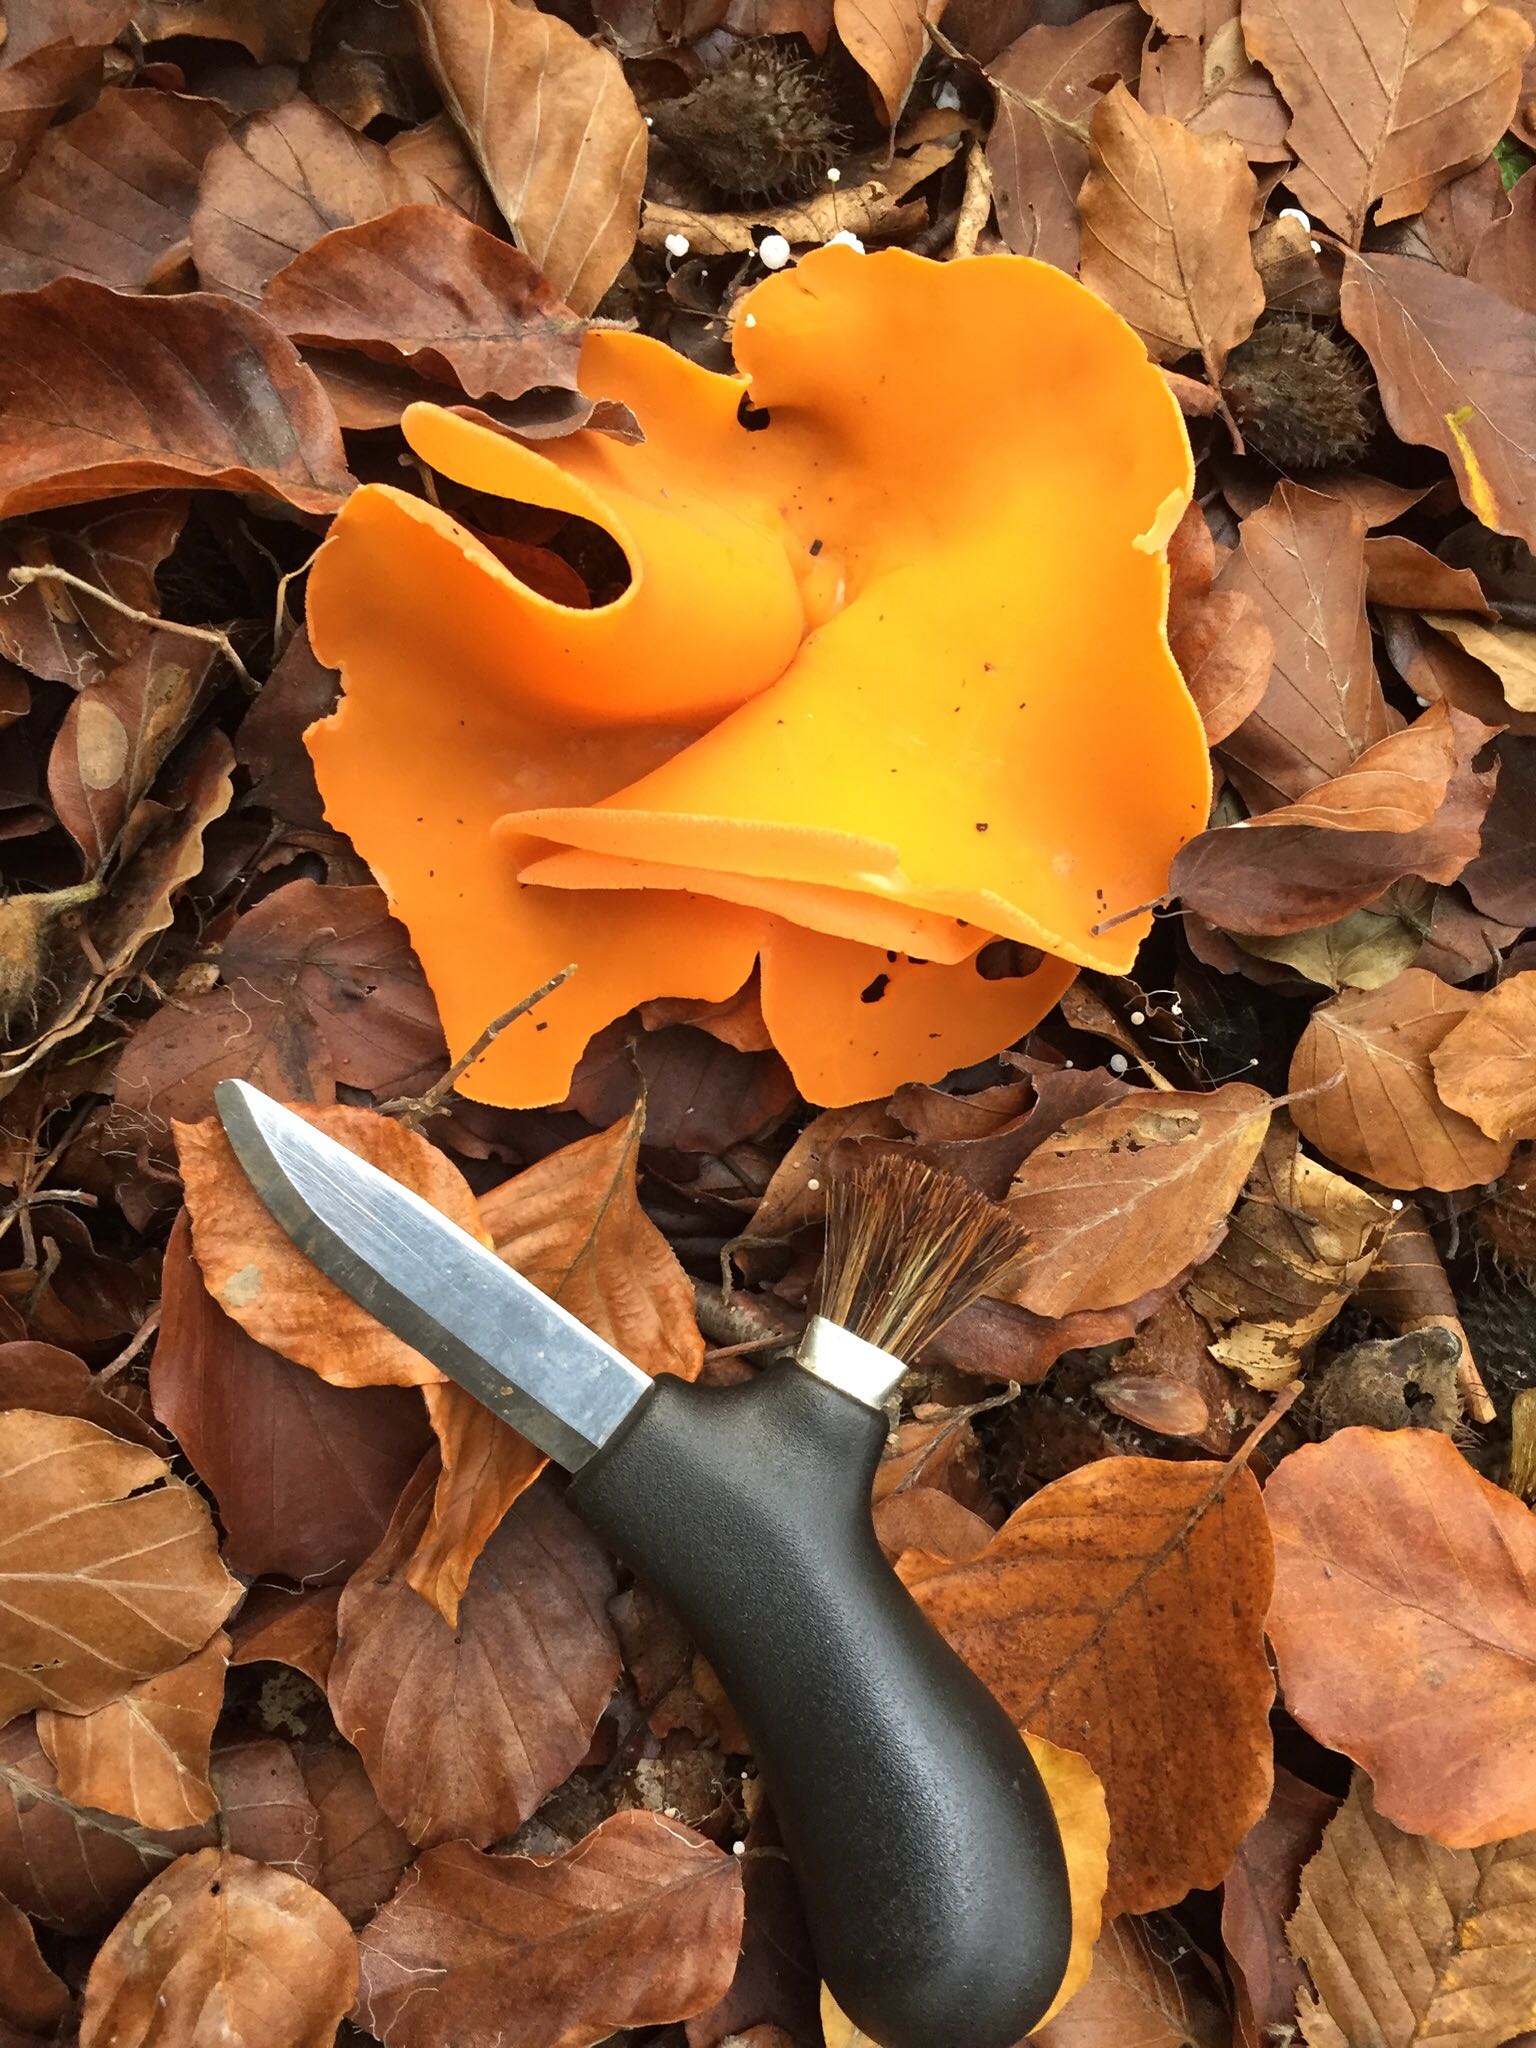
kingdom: Fungi
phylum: Ascomycota
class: Pezizomycetes
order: Pezizales
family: Pyronemataceae
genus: Aleuria
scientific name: Aleuria aurantia
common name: almindelig orangebæger
